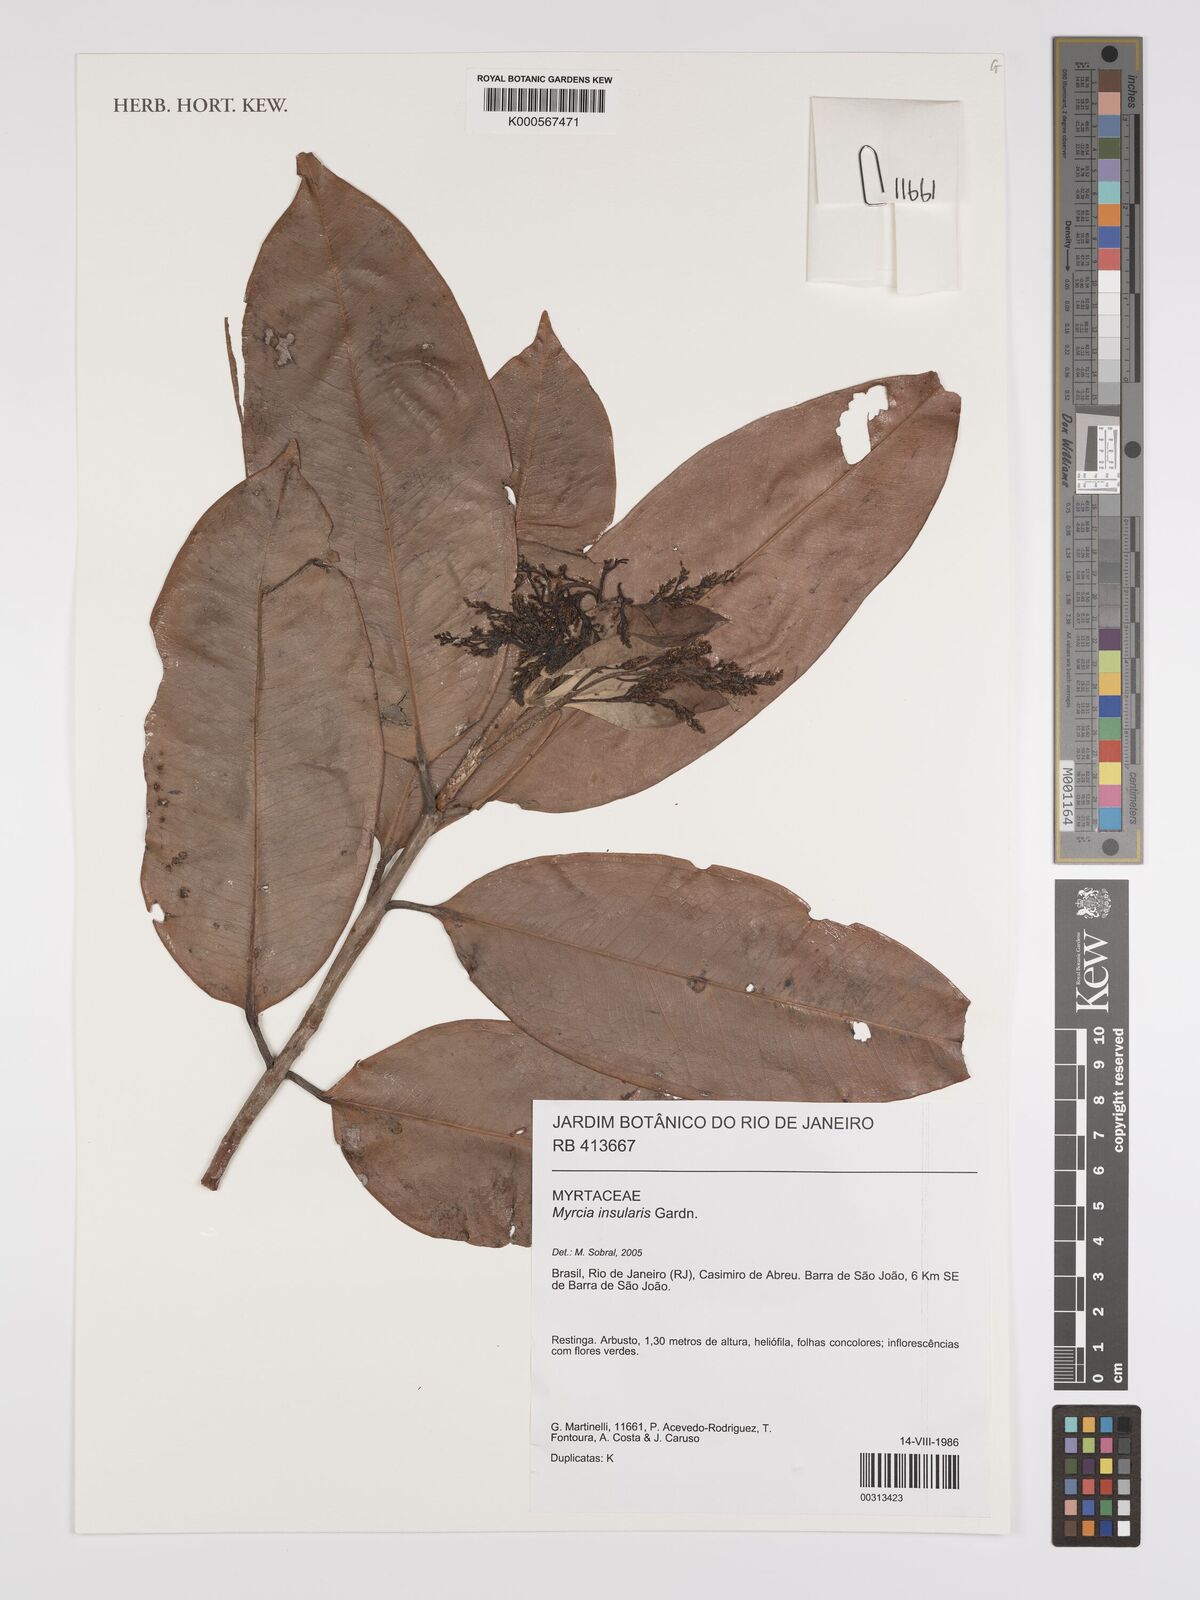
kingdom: Plantae
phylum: Tracheophyta
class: Magnoliopsida
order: Myrtales
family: Myrtaceae
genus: Myrcia
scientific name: Myrcia insularis
